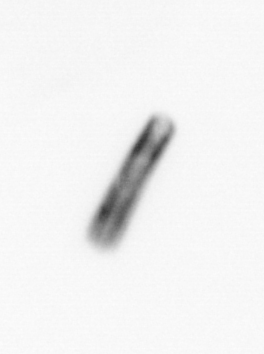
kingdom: Chromista
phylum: Ochrophyta
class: Bacillariophyceae
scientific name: Bacillariophyceae
